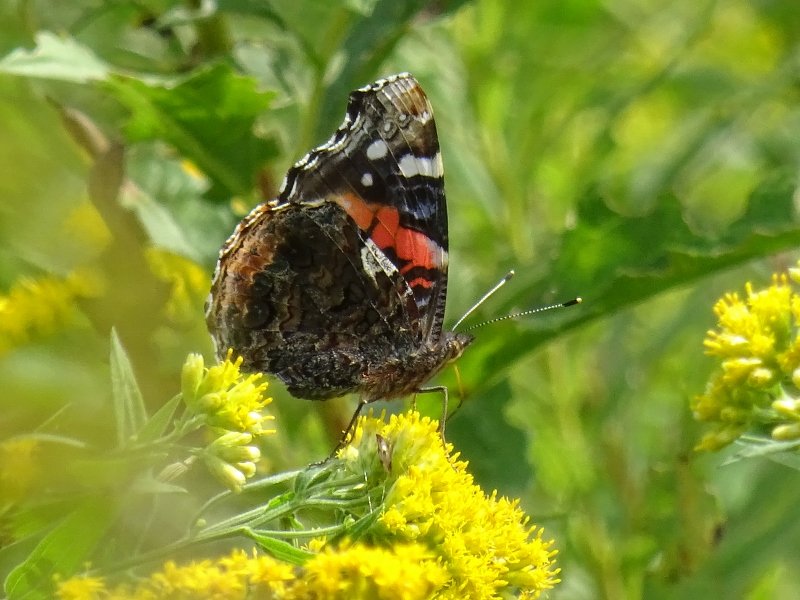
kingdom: Animalia
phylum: Arthropoda
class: Insecta
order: Lepidoptera
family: Nymphalidae
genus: Vanessa
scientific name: Vanessa atalanta
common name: Red Admiral
